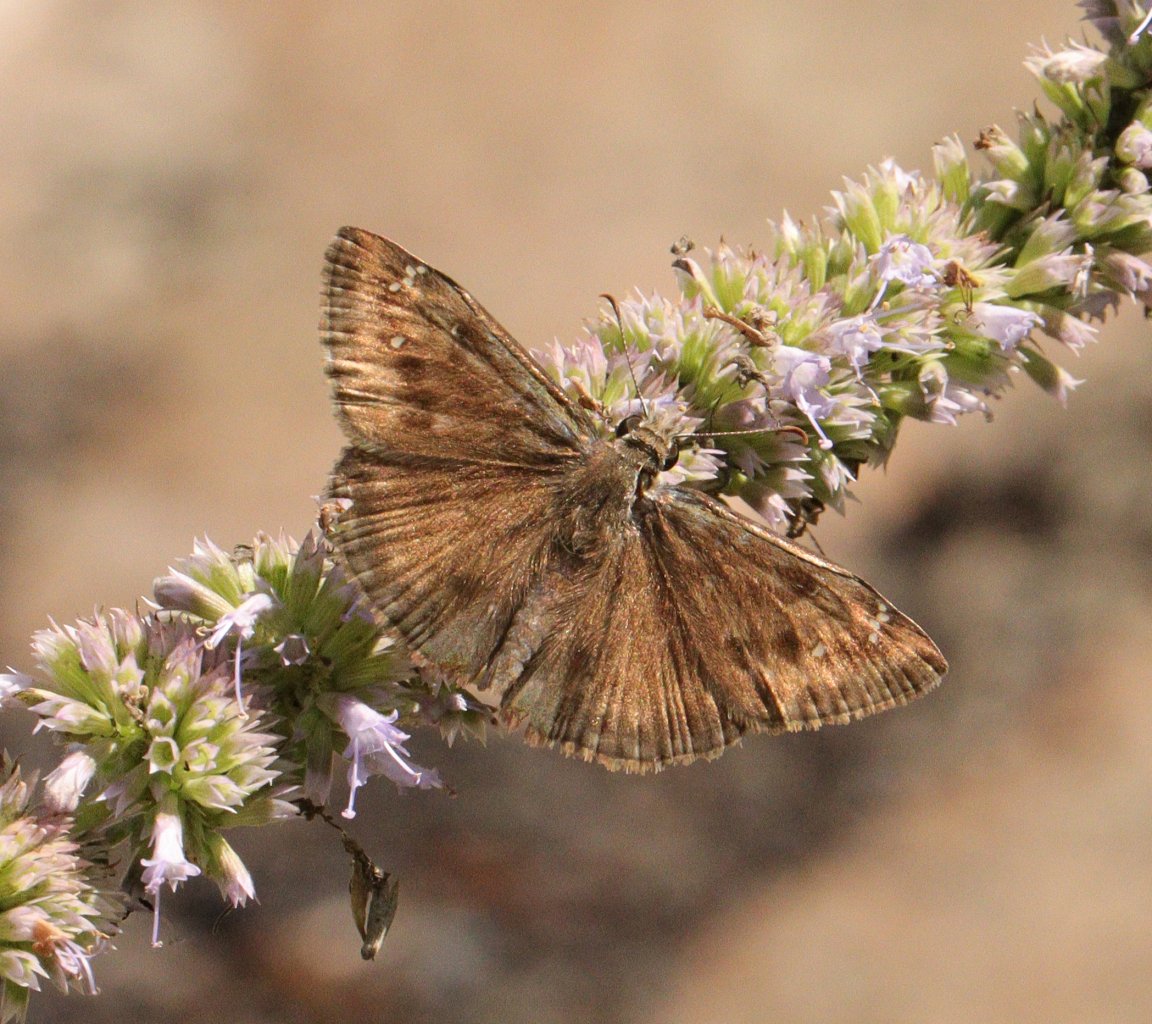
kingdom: Animalia
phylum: Arthropoda
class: Insecta
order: Lepidoptera
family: Hesperiidae
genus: Gesta
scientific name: Gesta
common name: Wild Indigo Duskywing
